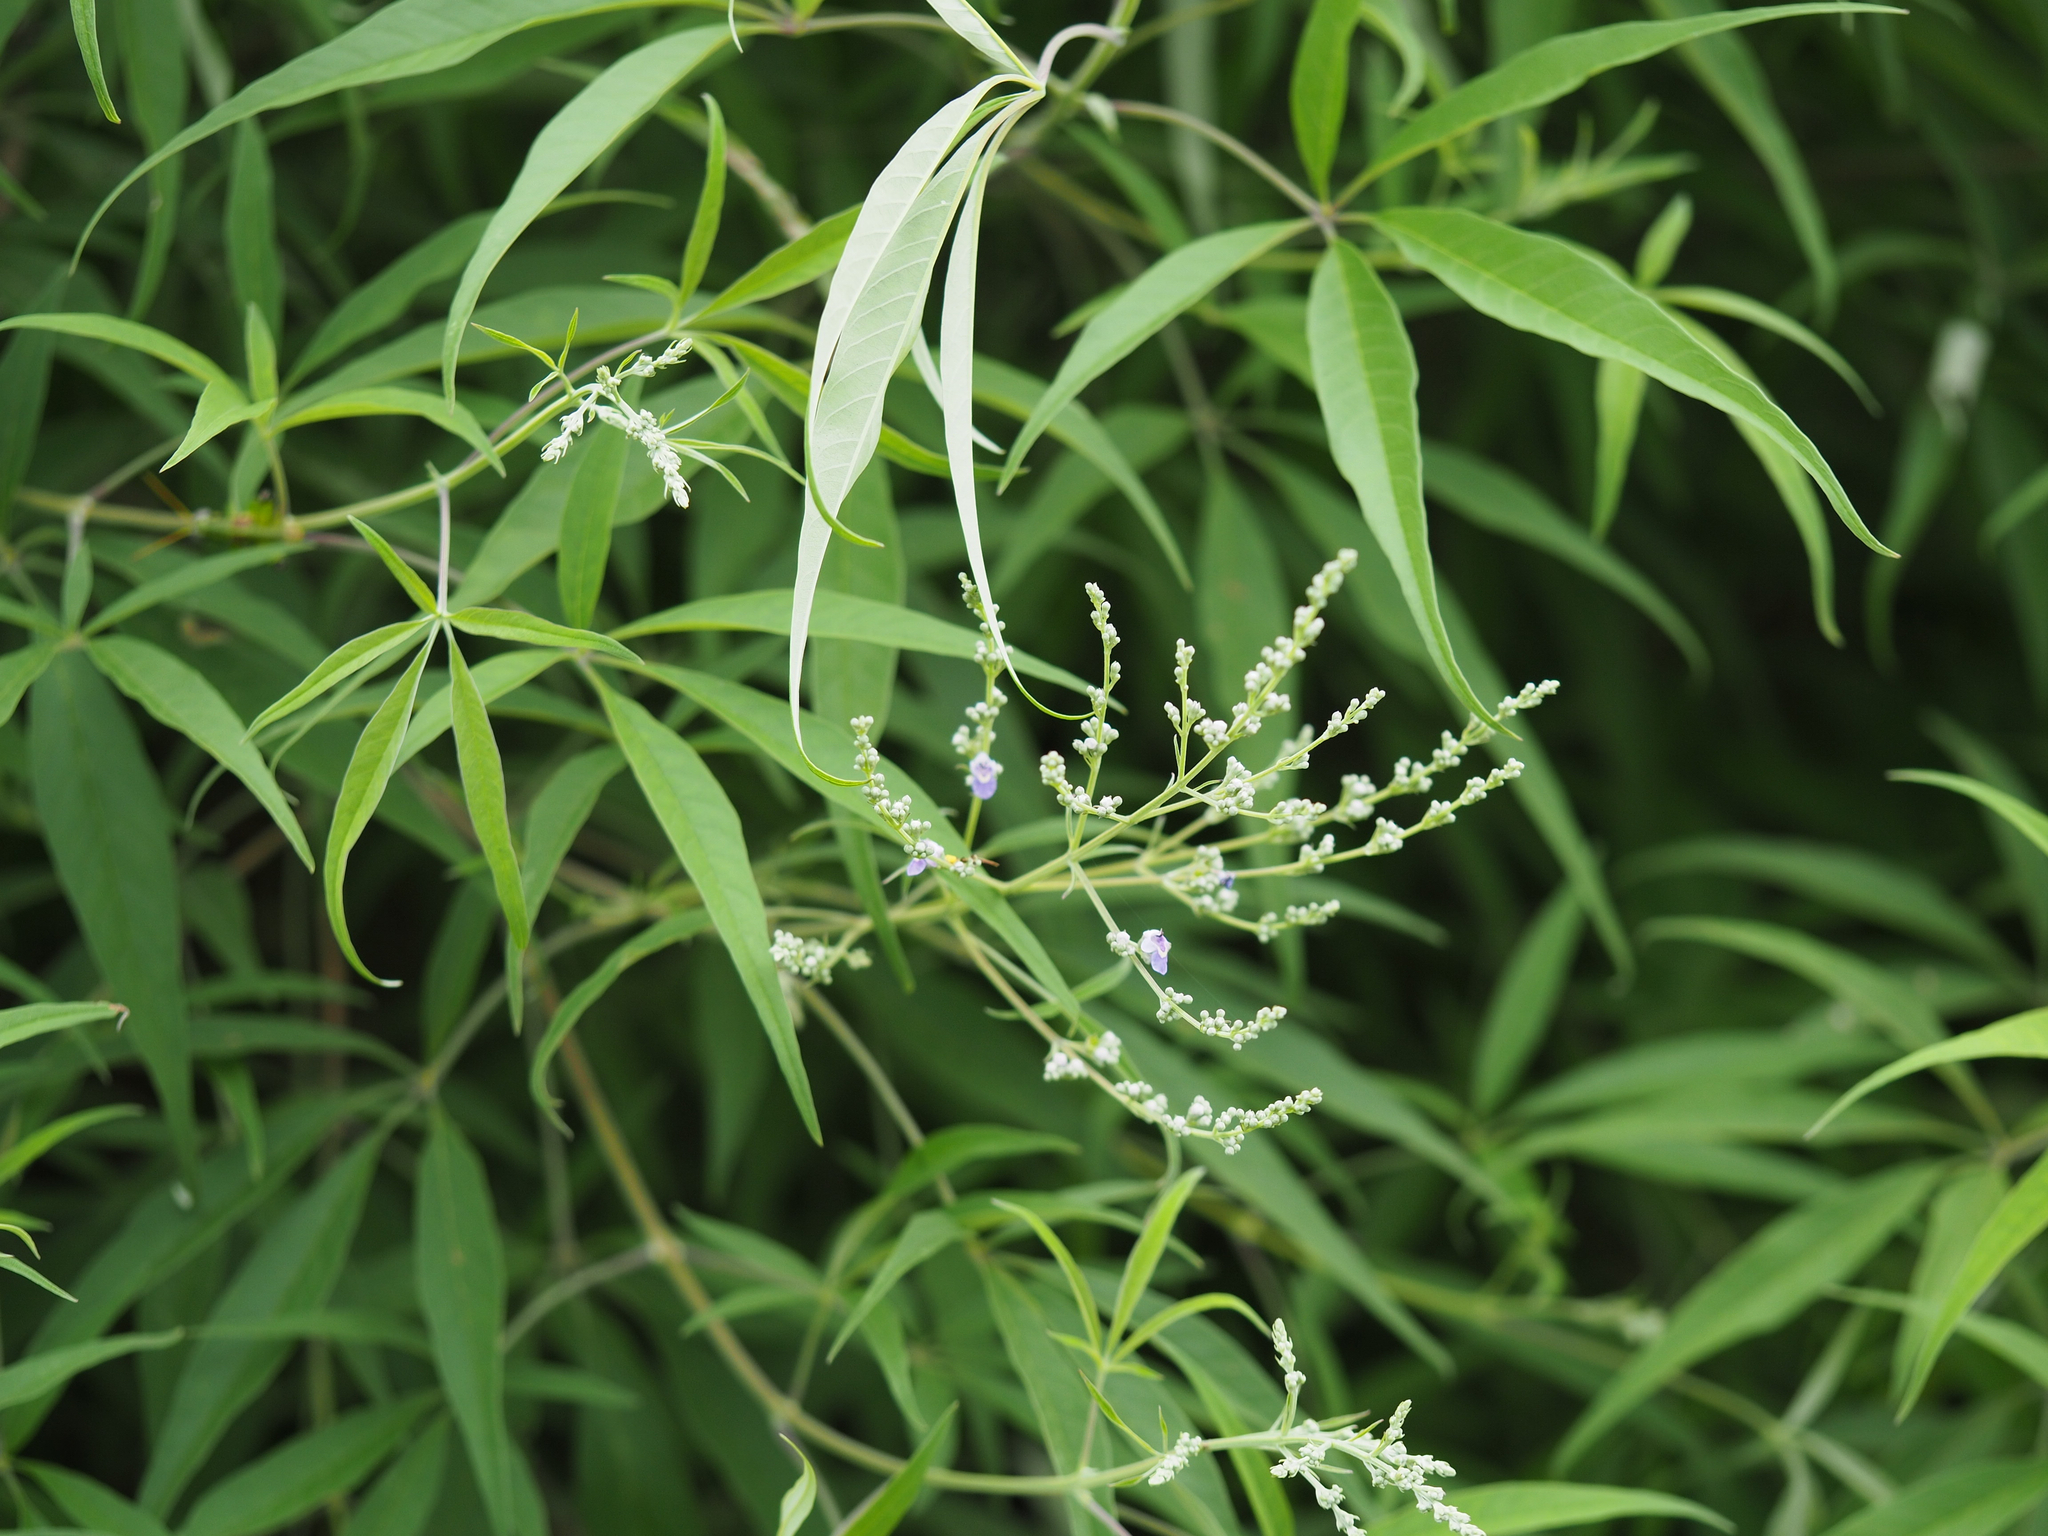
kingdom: Plantae
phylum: Tracheophyta
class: Magnoliopsida
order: Lamiales
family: Lamiaceae
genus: Vitex
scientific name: Vitex negundo
